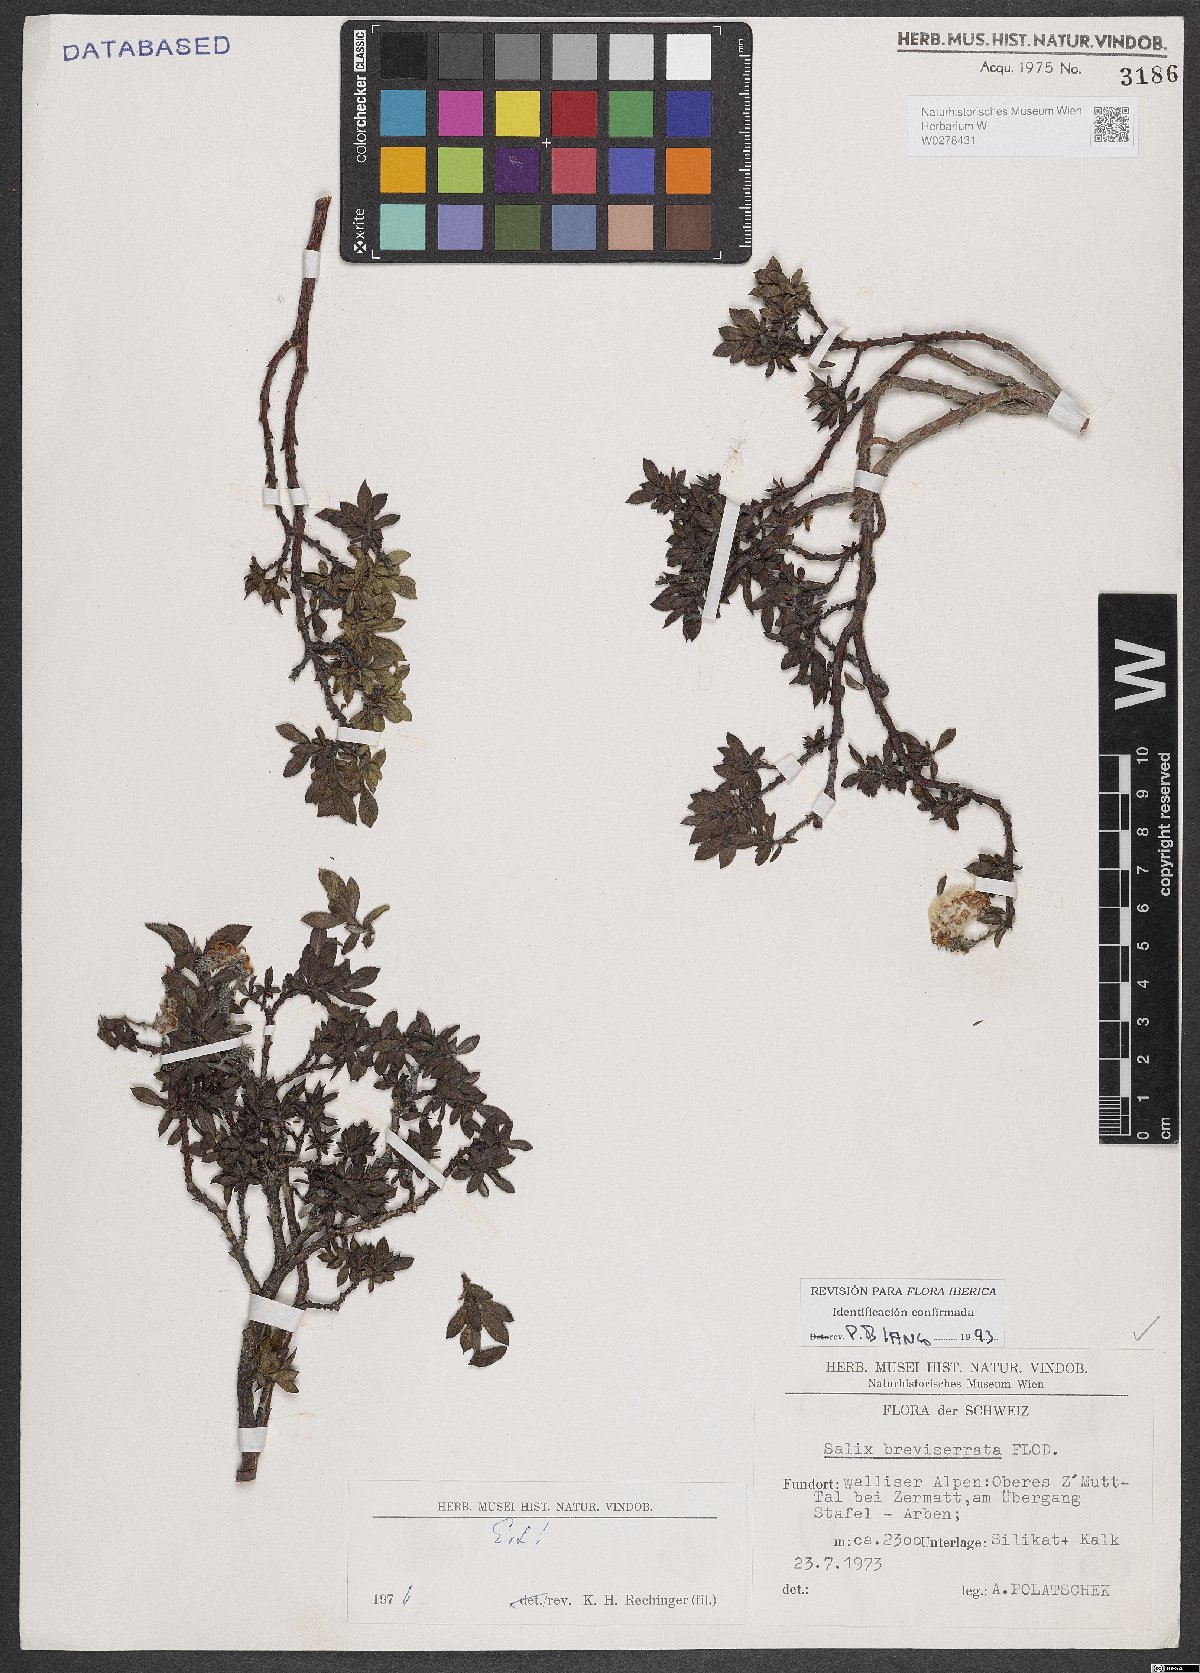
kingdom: Plantae
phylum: Tracheophyta
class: Magnoliopsida
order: Malpighiales
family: Salicaceae
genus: Salix
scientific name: Salix breviserrata
